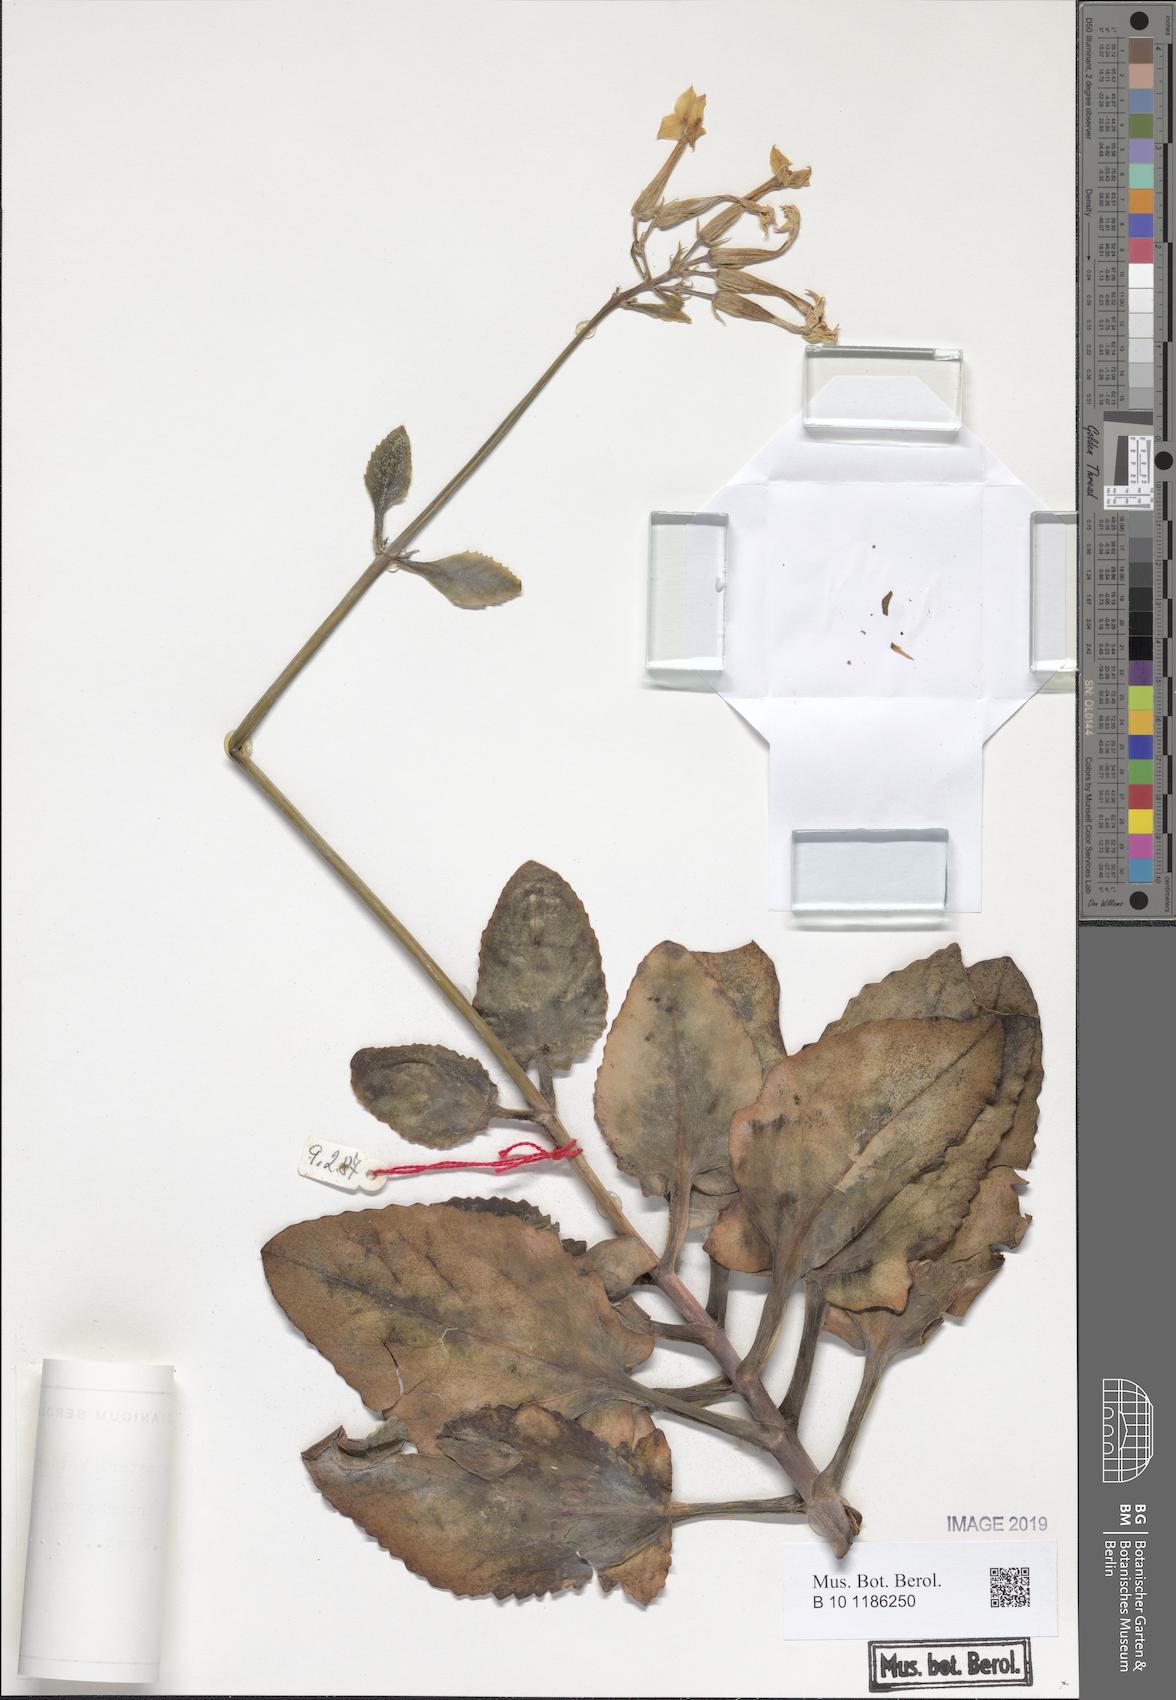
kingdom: Plantae
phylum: Tracheophyta
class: Magnoliopsida
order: Saxifragales
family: Crassulaceae
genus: Kalanchoe
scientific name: Kalanchoe peteri
